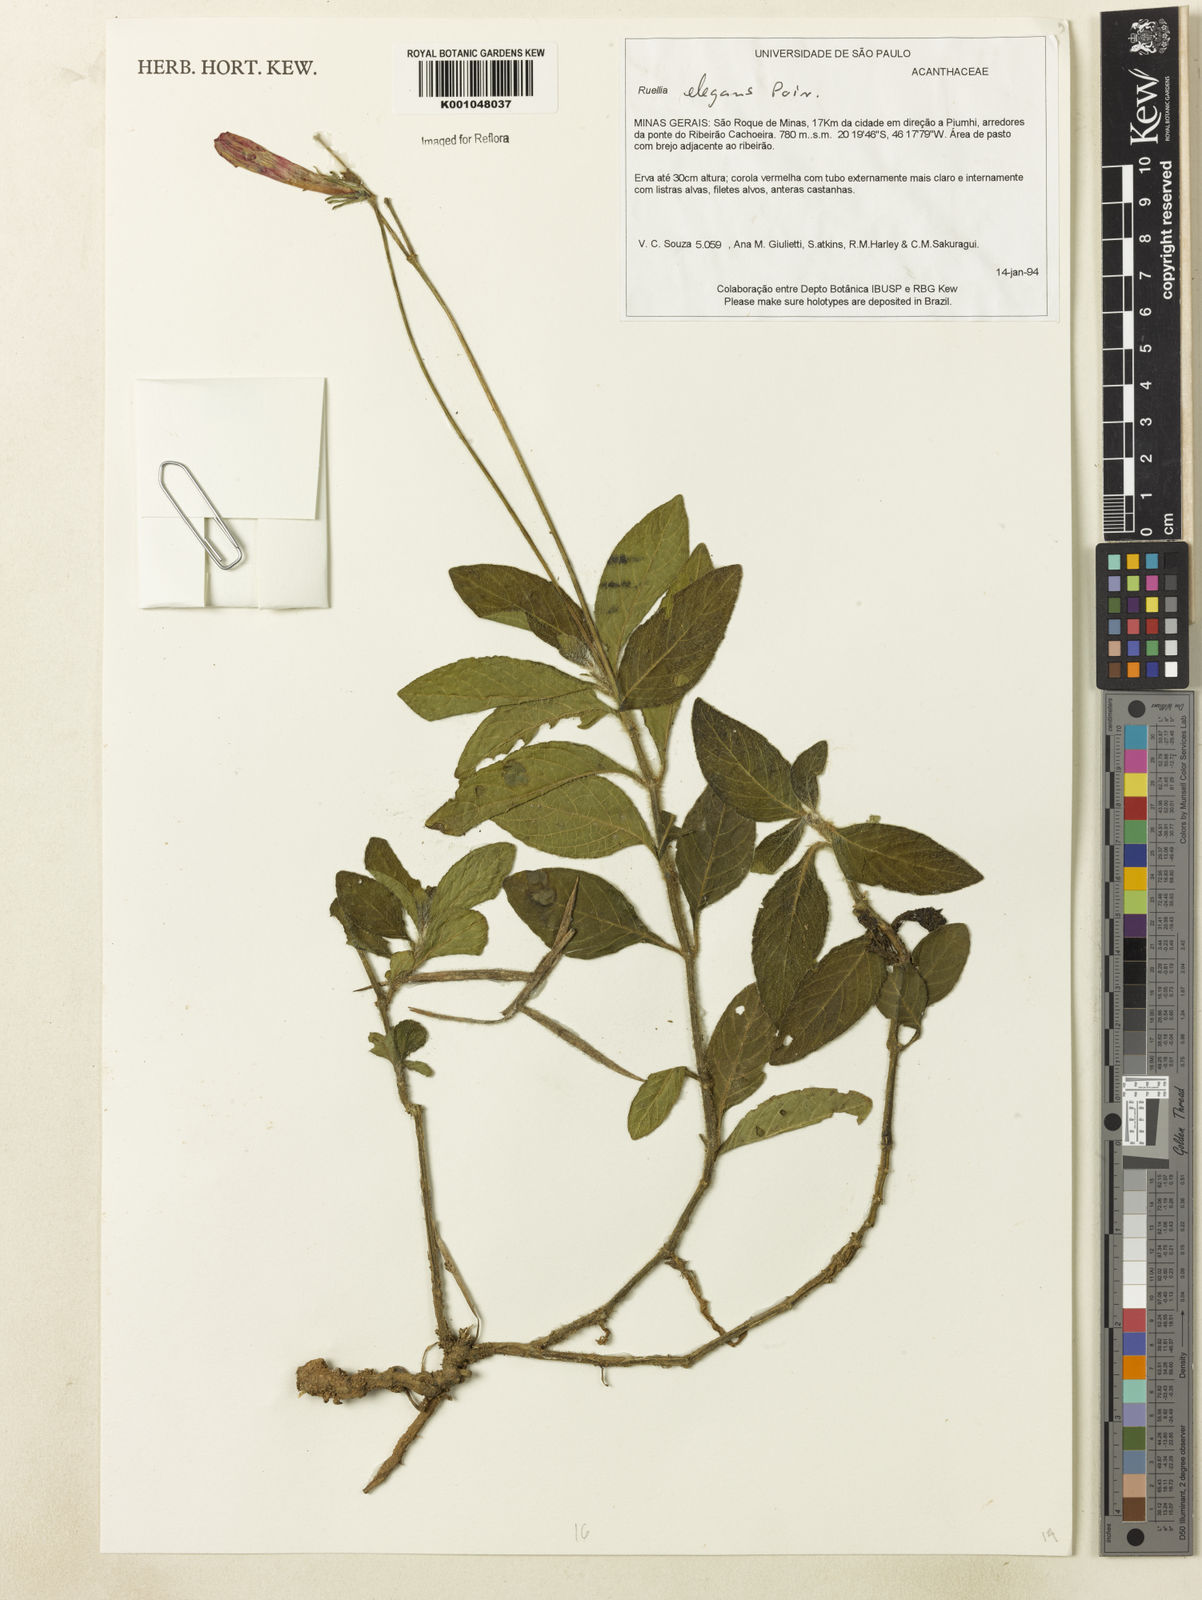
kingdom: Plantae
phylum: Tracheophyta
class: Magnoliopsida
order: Lamiales
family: Acanthaceae
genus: Ruellia
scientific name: Ruellia elegans
